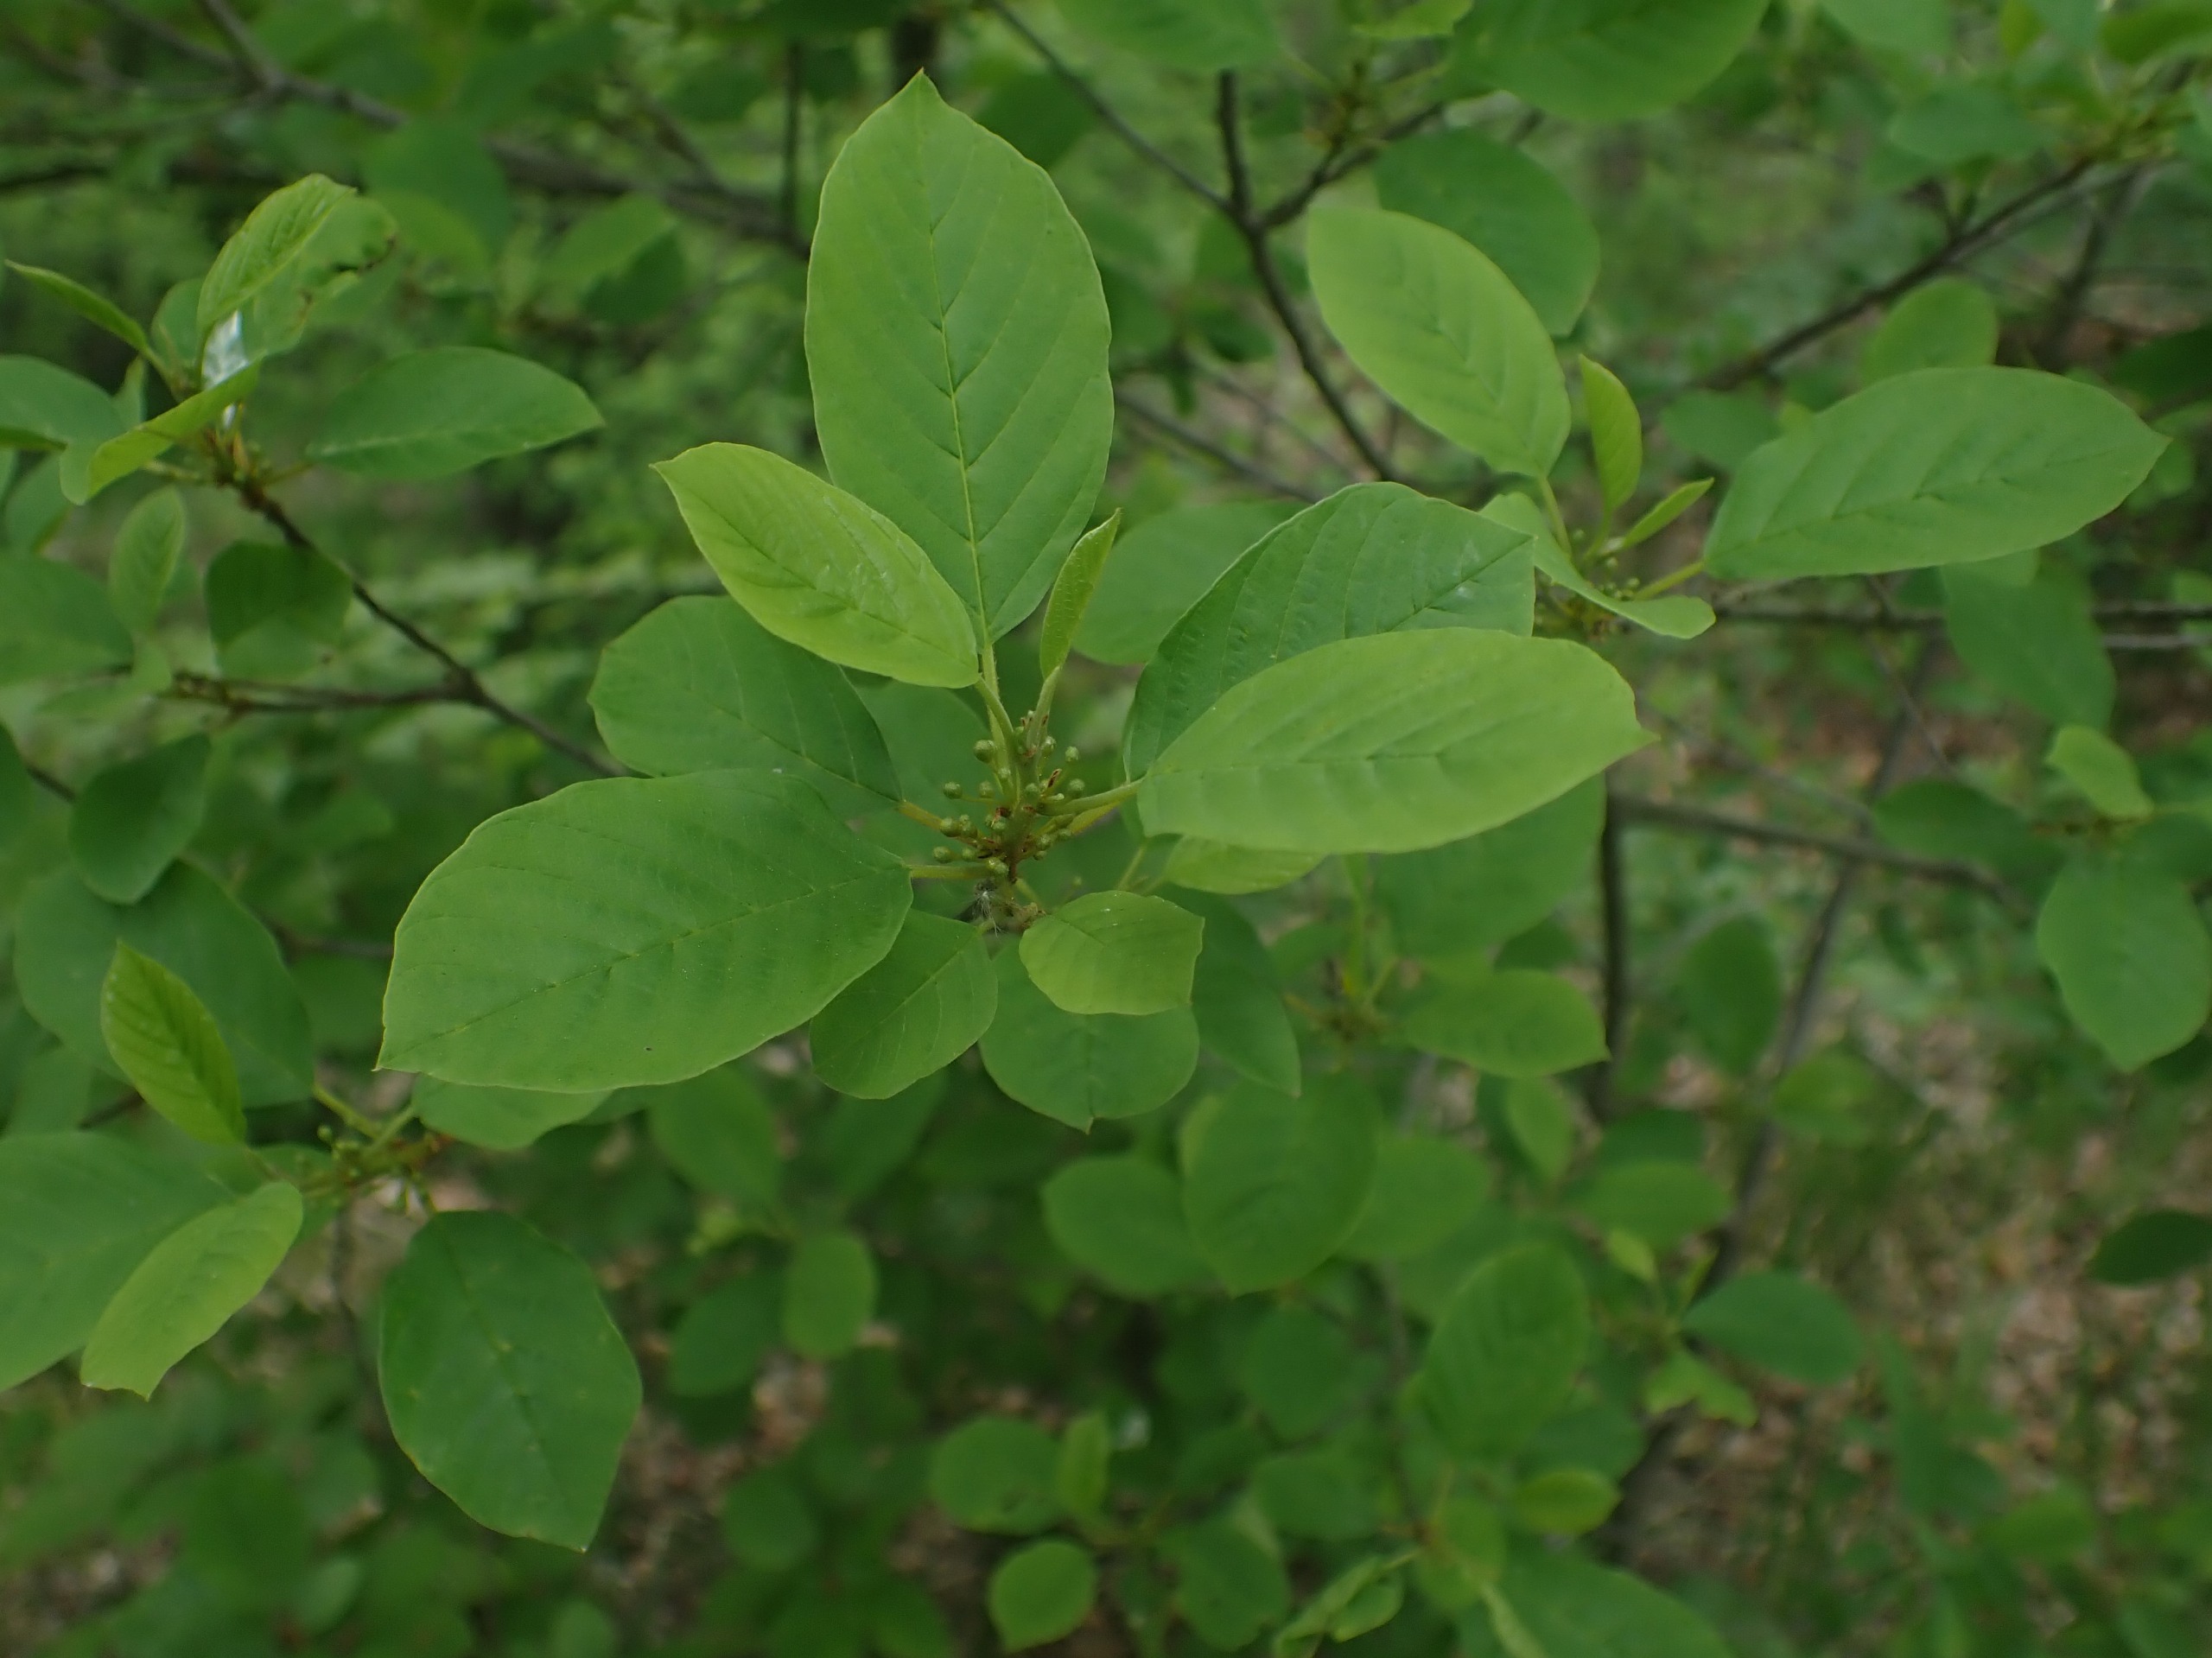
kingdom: Plantae
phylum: Tracheophyta
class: Magnoliopsida
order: Rosales
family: Rhamnaceae
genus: Frangula
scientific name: Frangula alnus
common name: Tørst
